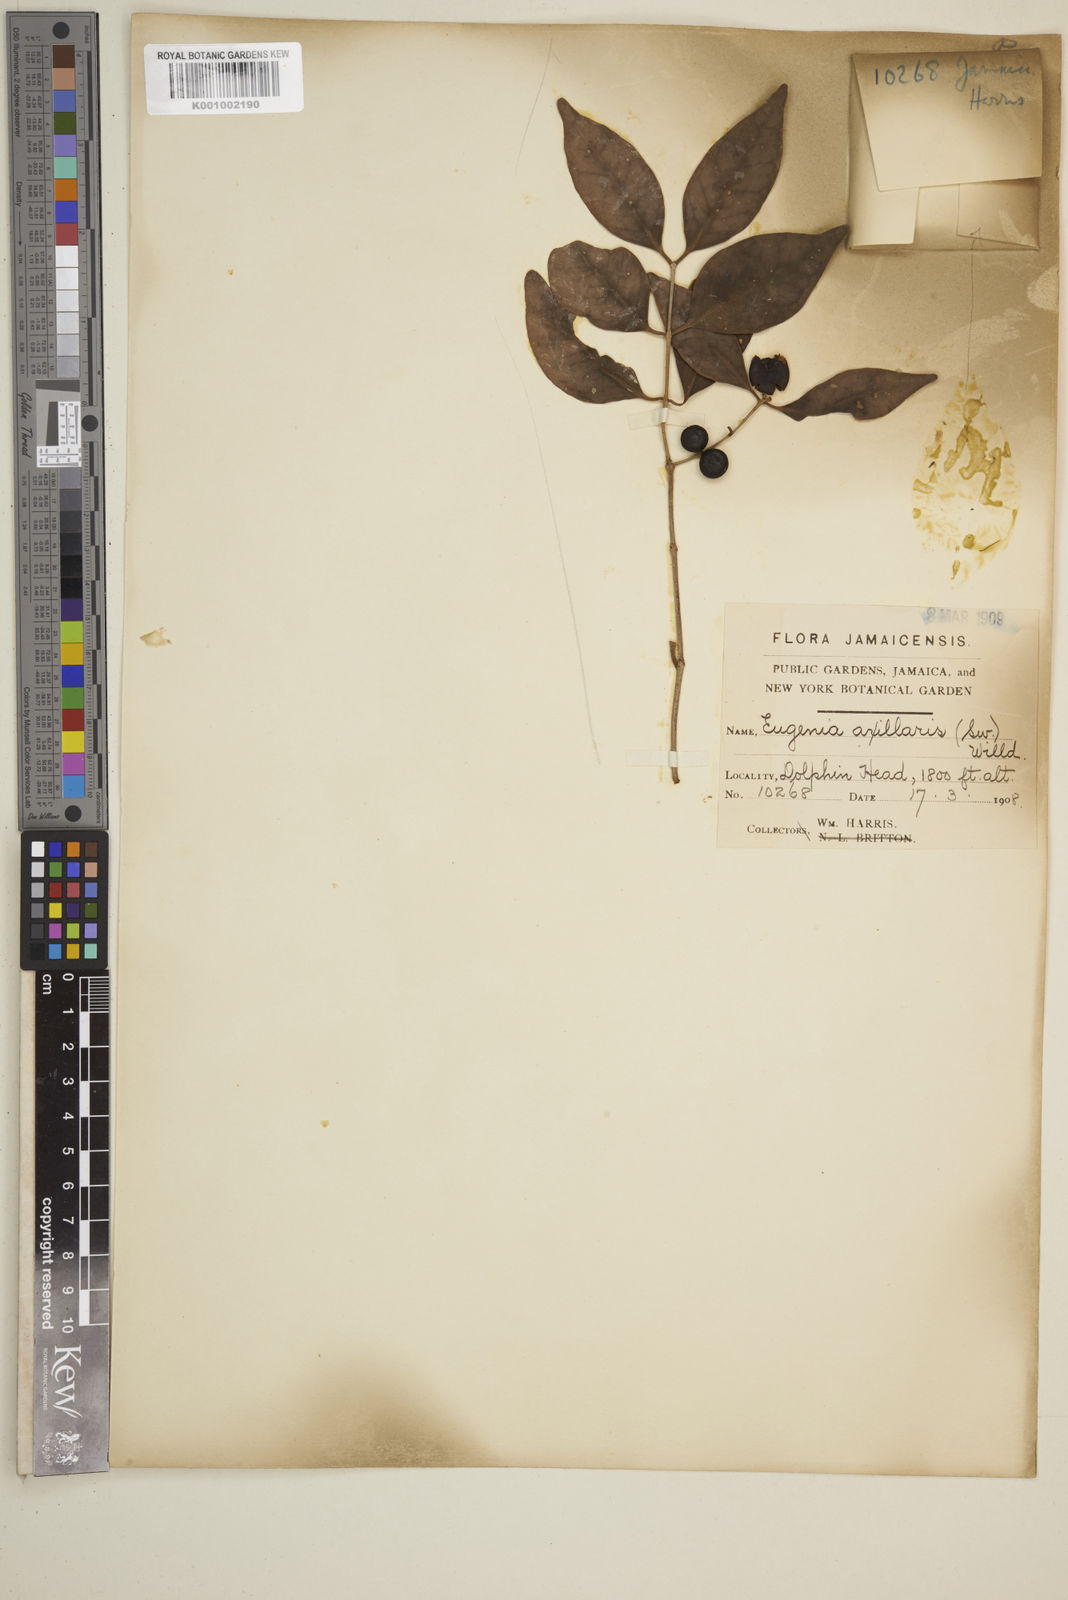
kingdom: Plantae
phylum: Tracheophyta
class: Magnoliopsida
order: Myrtales
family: Myrtaceae
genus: Eugenia
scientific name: Eugenia axillaris
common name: Choaky berry
